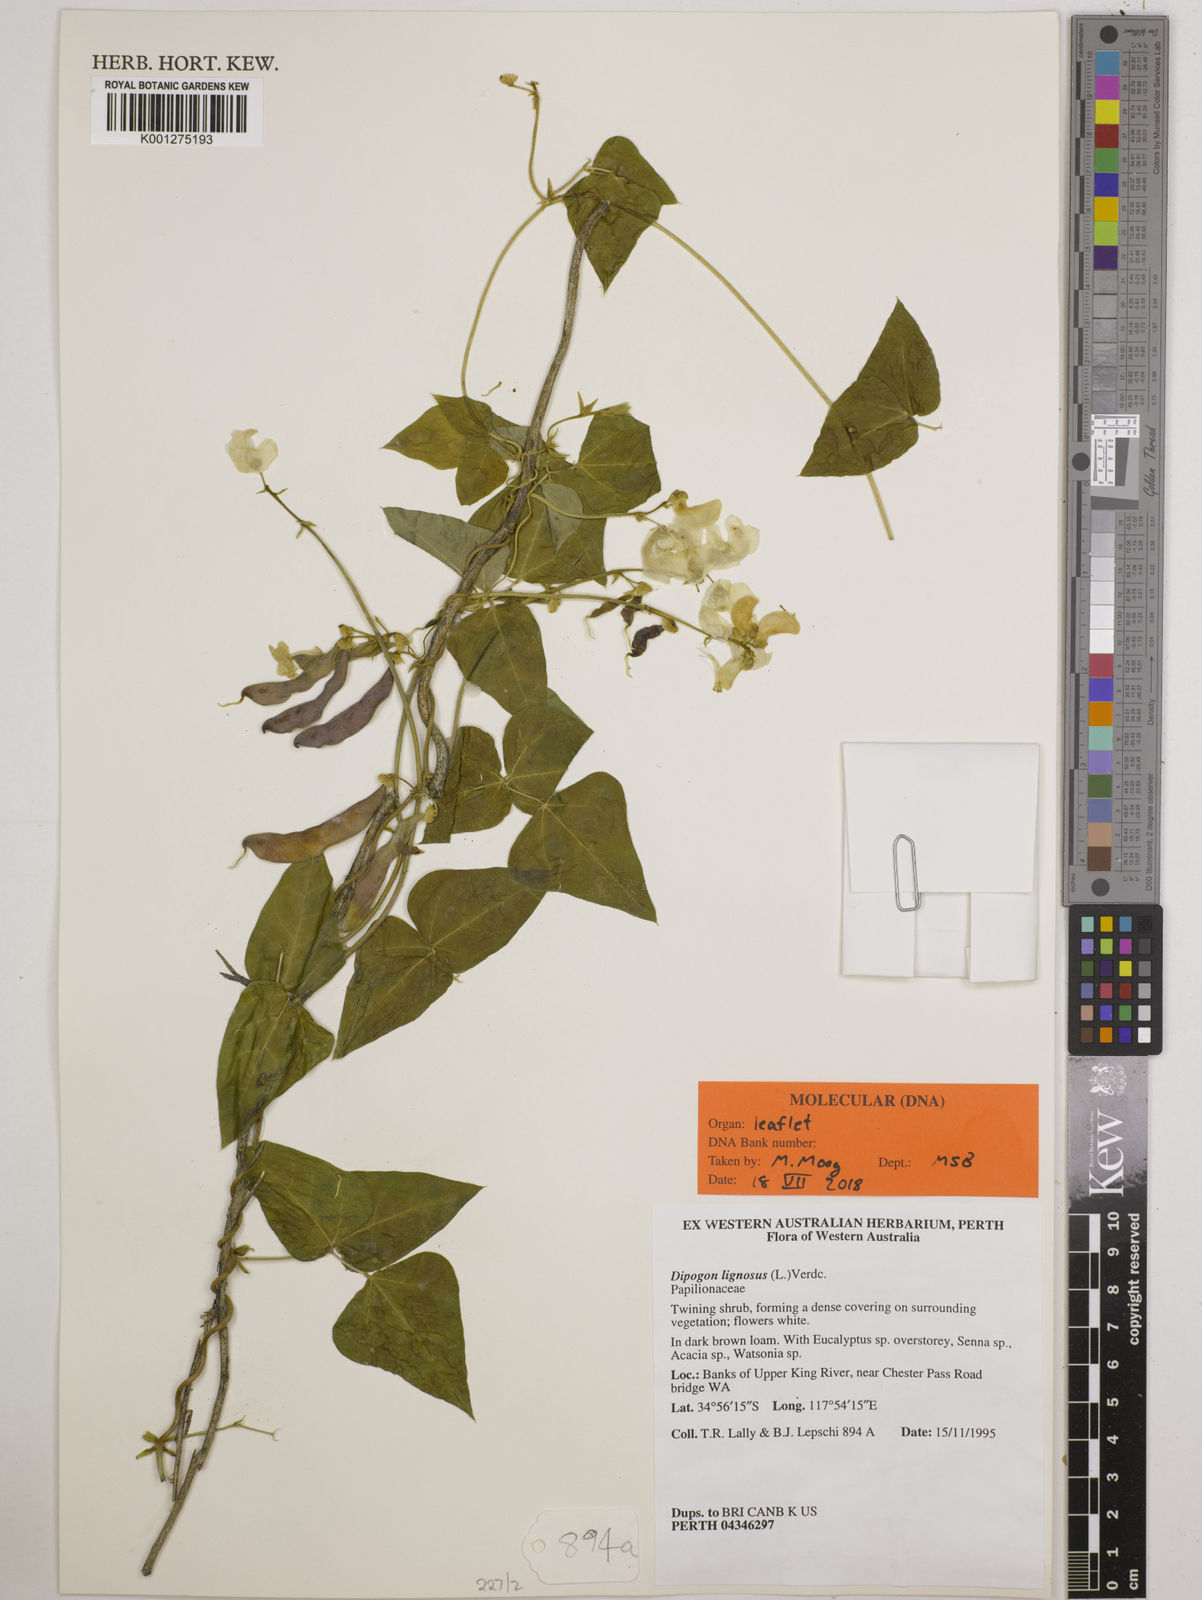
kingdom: Plantae
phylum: Tracheophyta
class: Magnoliopsida
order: Fabales
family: Fabaceae
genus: Dipogon
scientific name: Dipogon lignosus
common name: Okie bean
